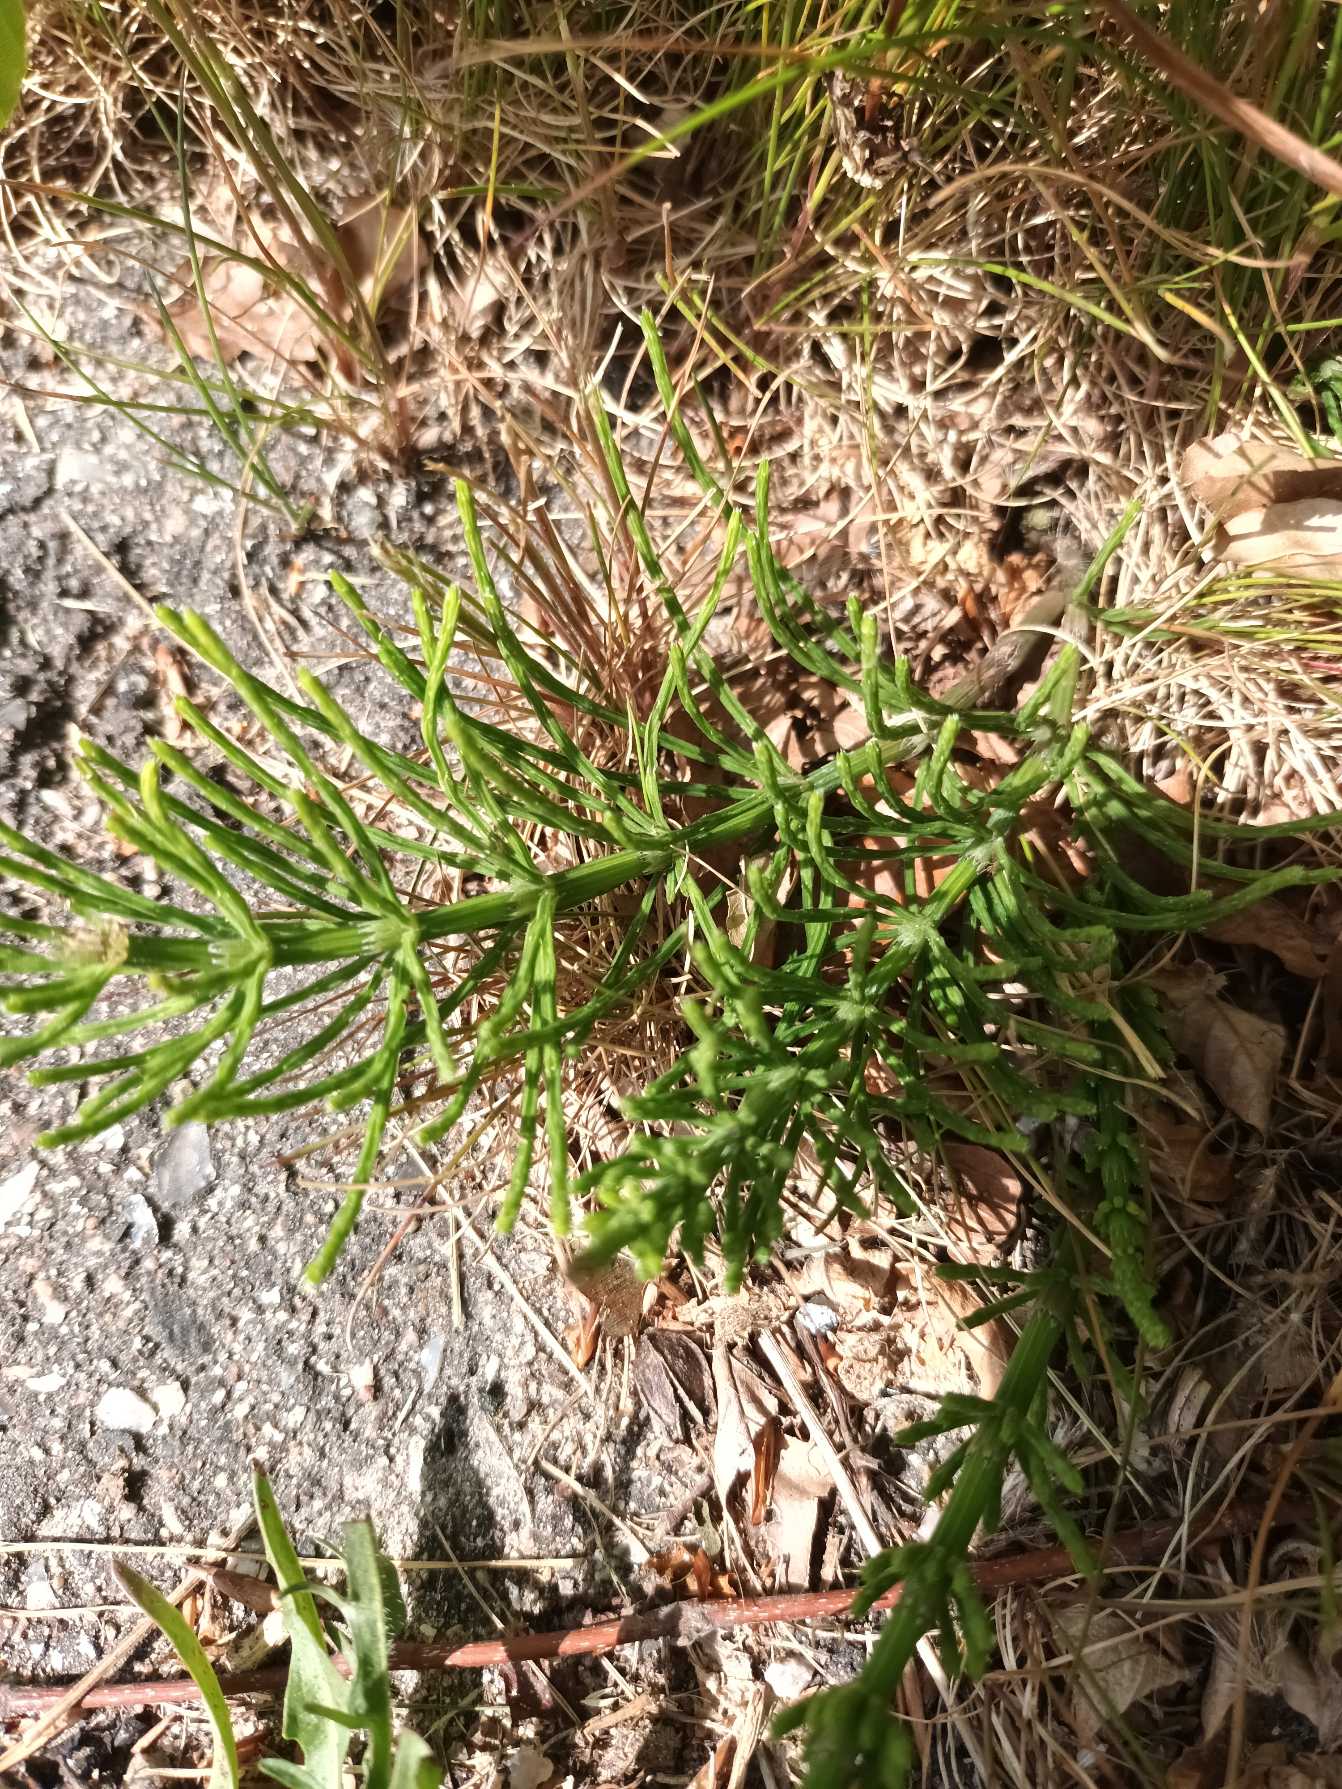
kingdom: Plantae
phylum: Tracheophyta
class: Polypodiopsida
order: Equisetales
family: Equisetaceae
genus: Equisetum
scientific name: Equisetum arvense
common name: Ager-padderok
